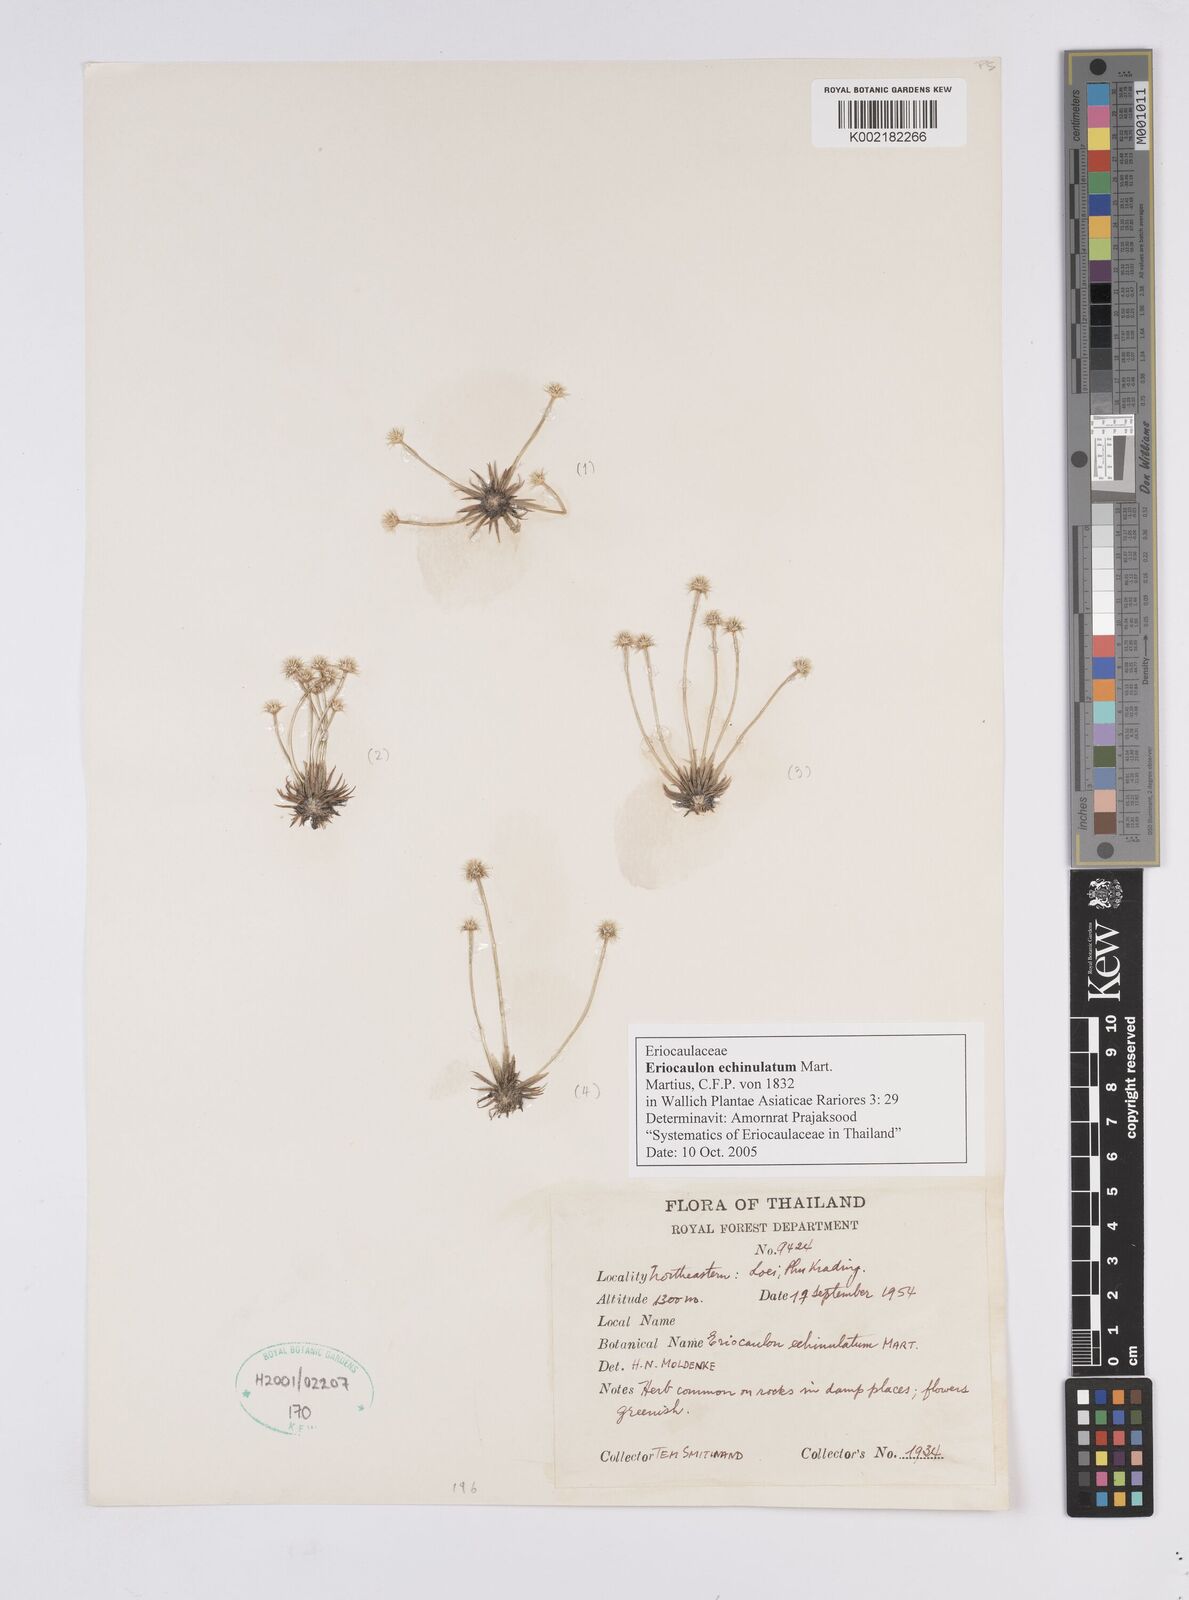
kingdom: Plantae
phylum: Tracheophyta
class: Liliopsida
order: Poales
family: Eriocaulaceae
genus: Eriocaulon
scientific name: Eriocaulon echinulatum
